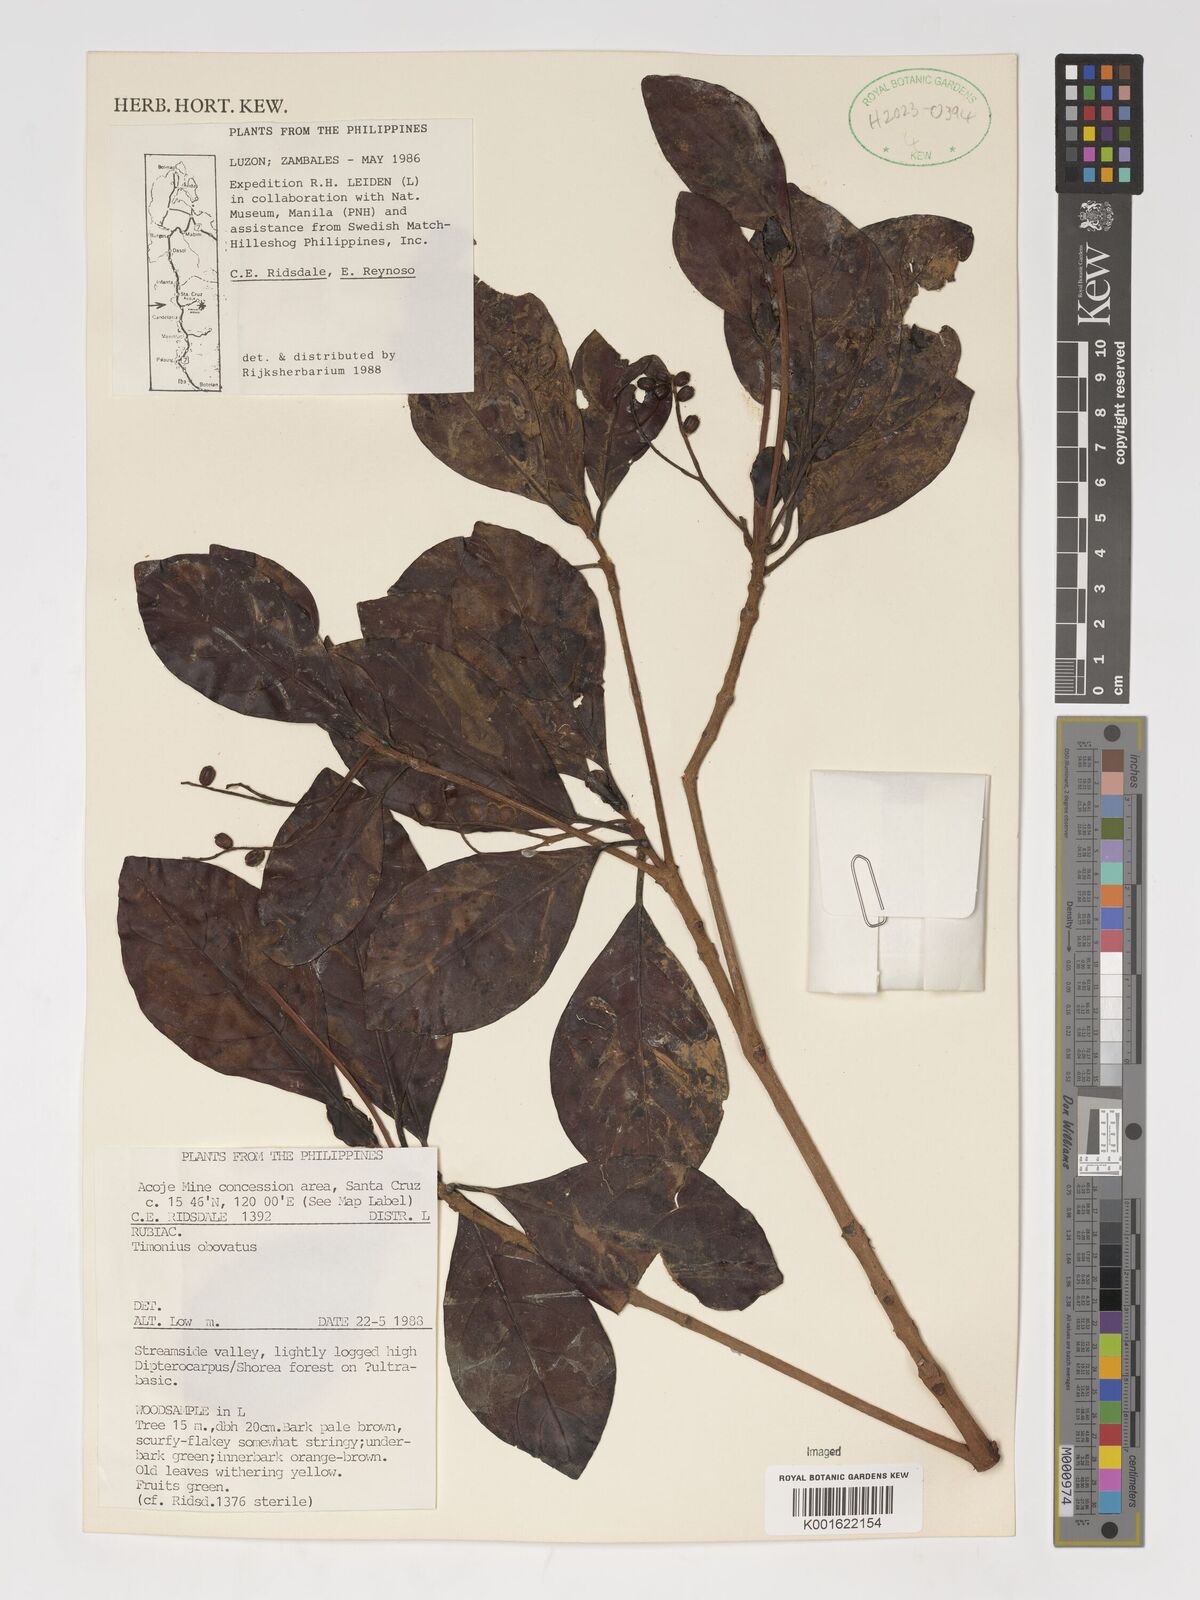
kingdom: Plantae
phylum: Tracheophyta
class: Magnoliopsida
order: Gentianales
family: Rubiaceae
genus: Timonius
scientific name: Timonius obovatus
